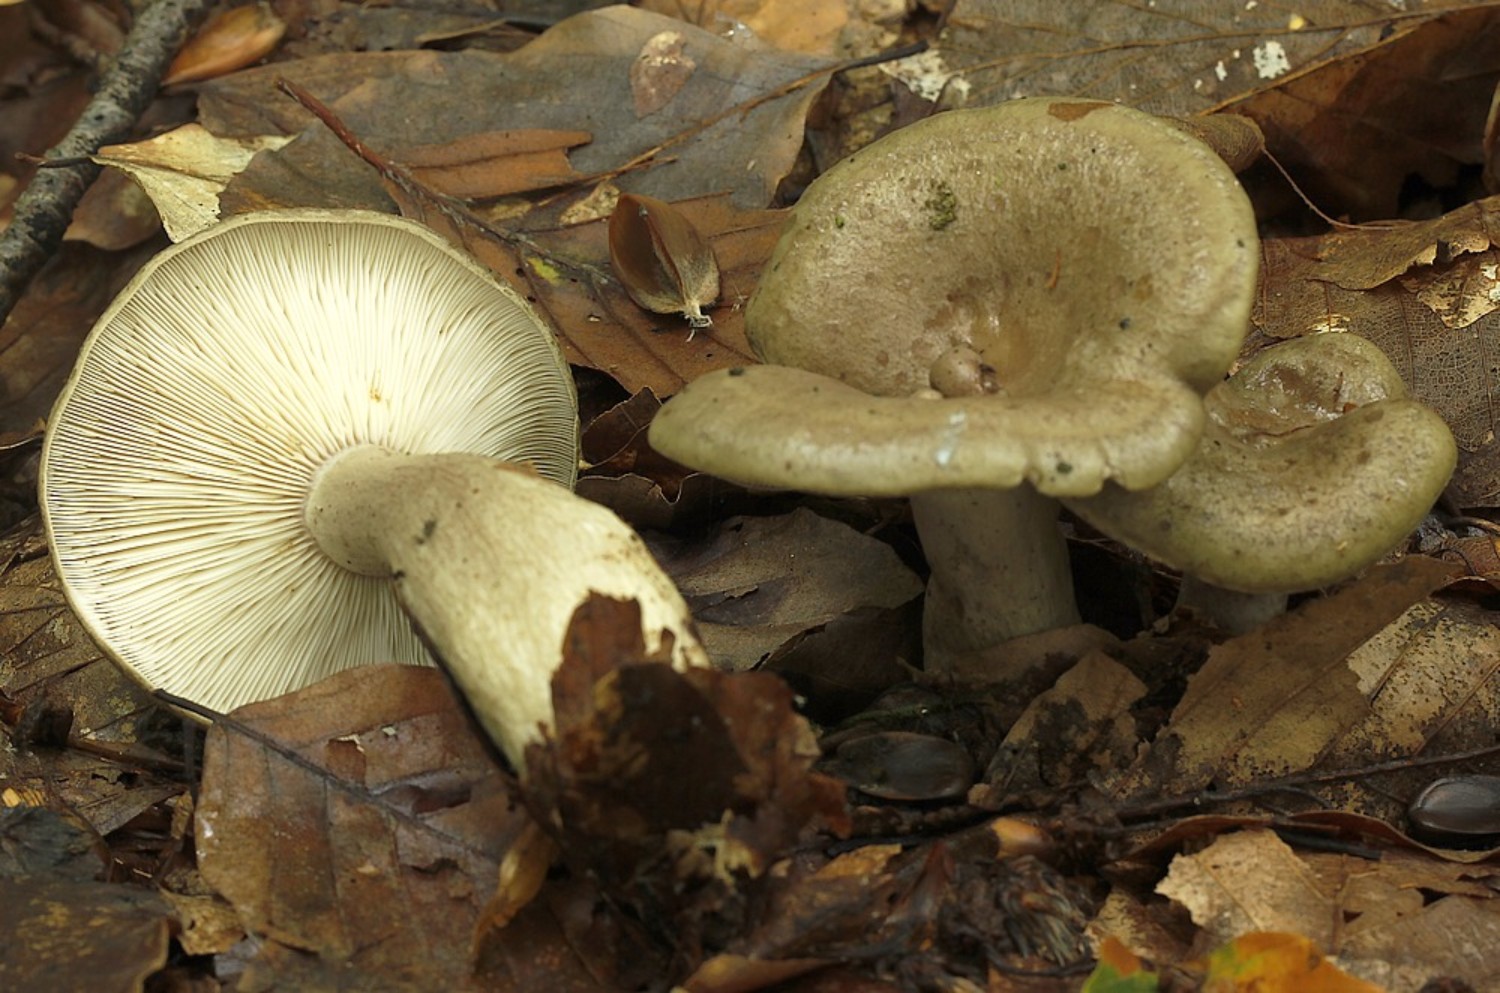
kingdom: Fungi
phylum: Basidiomycota
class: Agaricomycetes
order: Russulales
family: Russulaceae
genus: Lactarius
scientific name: Lactarius blennius
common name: dråbeplettet mælkehat
